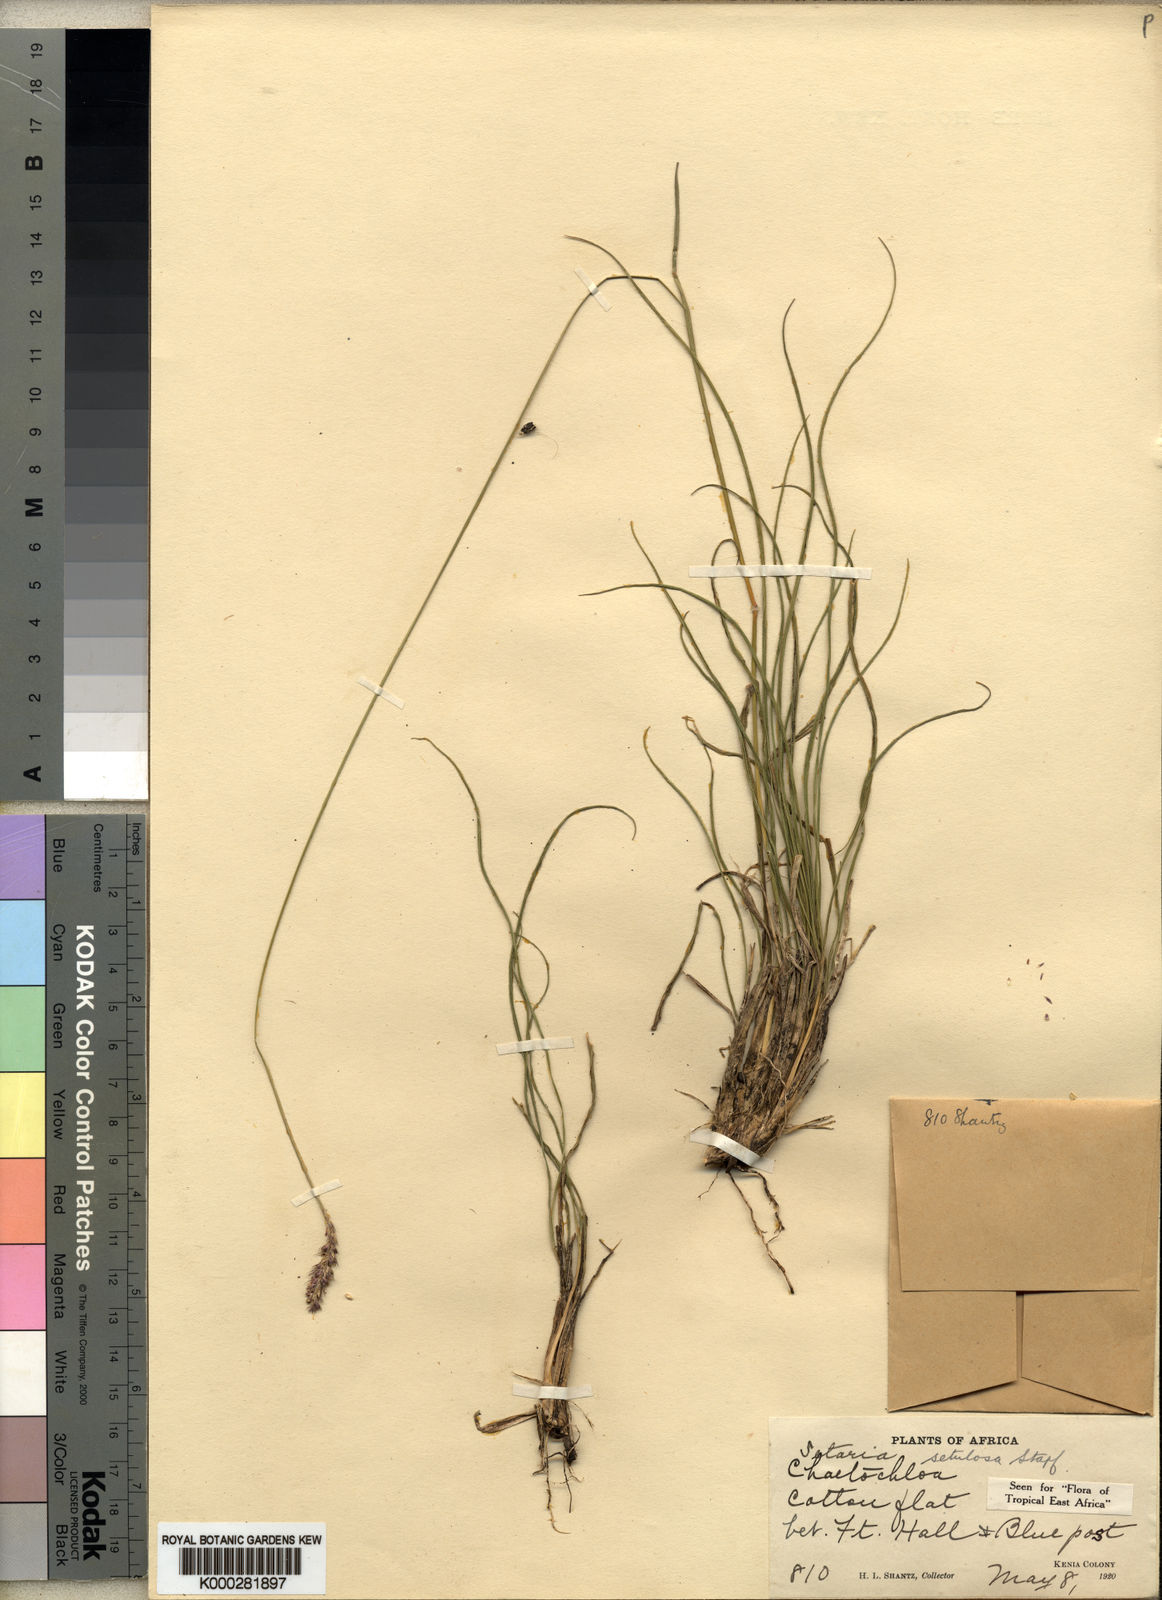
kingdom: Plantae
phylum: Tracheophyta
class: Liliopsida
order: Poales
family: Poaceae
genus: Setaria
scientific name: Setaria incrassata
